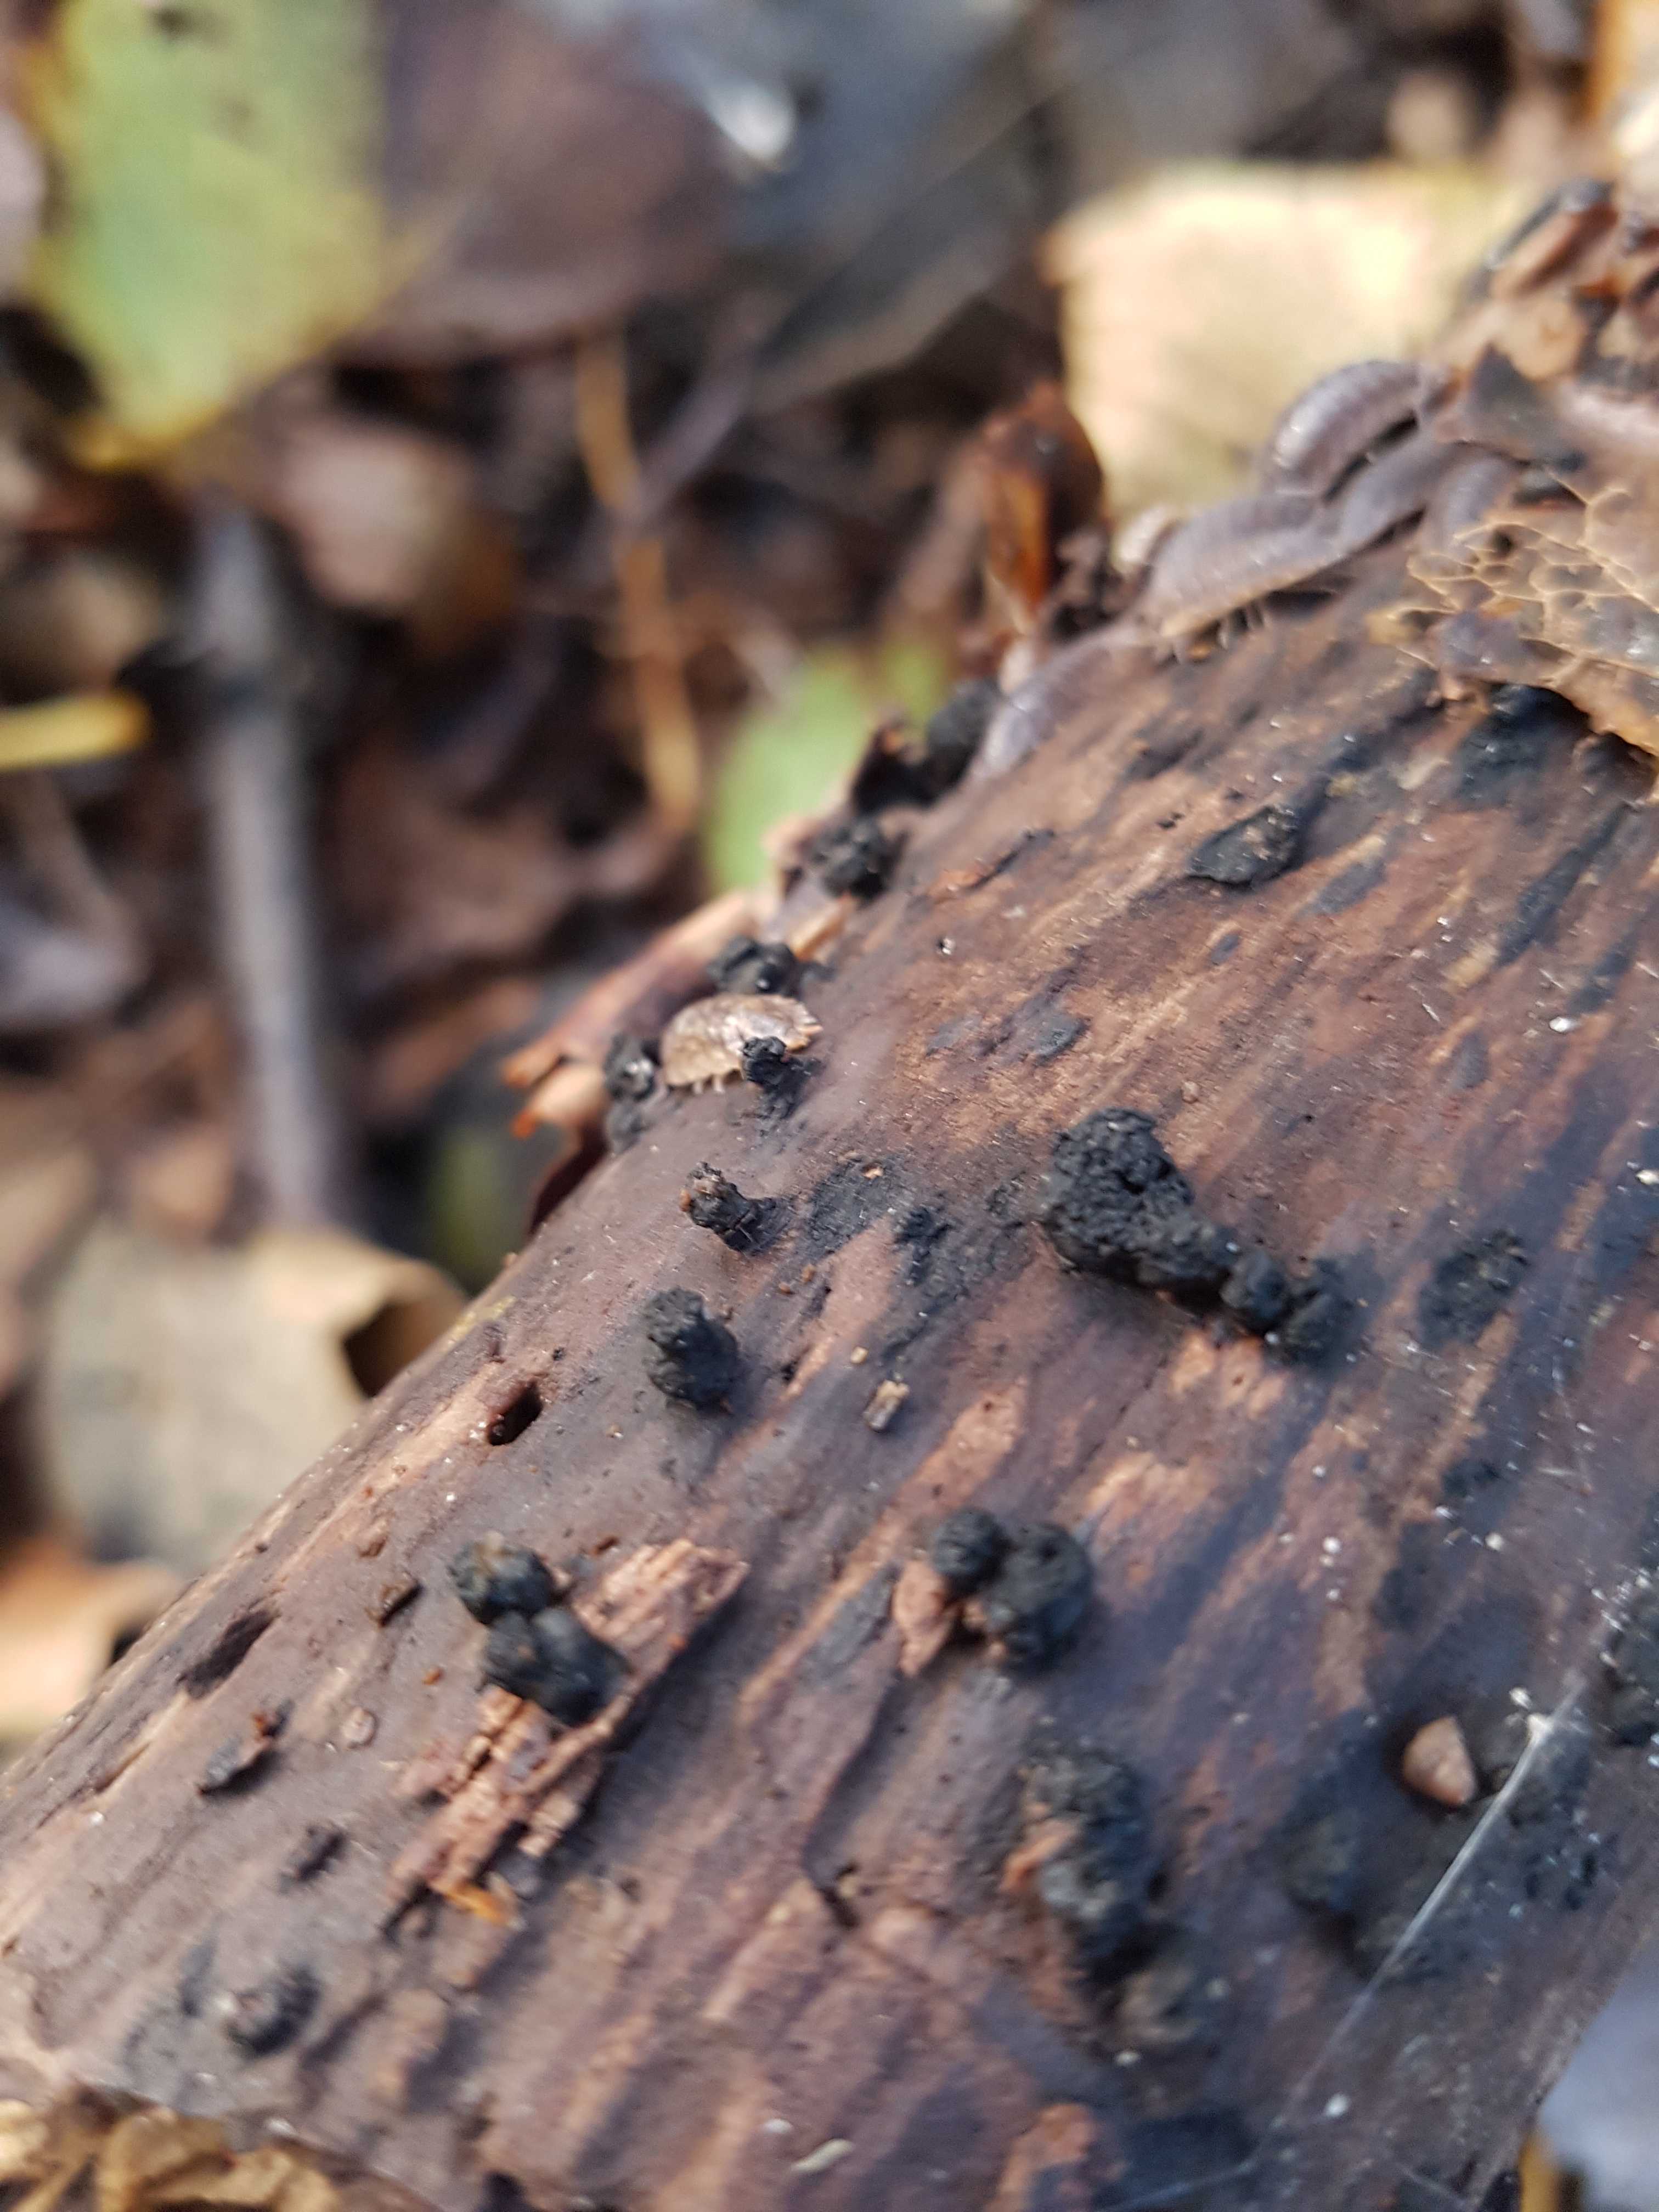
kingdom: Fungi
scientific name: Fungi
